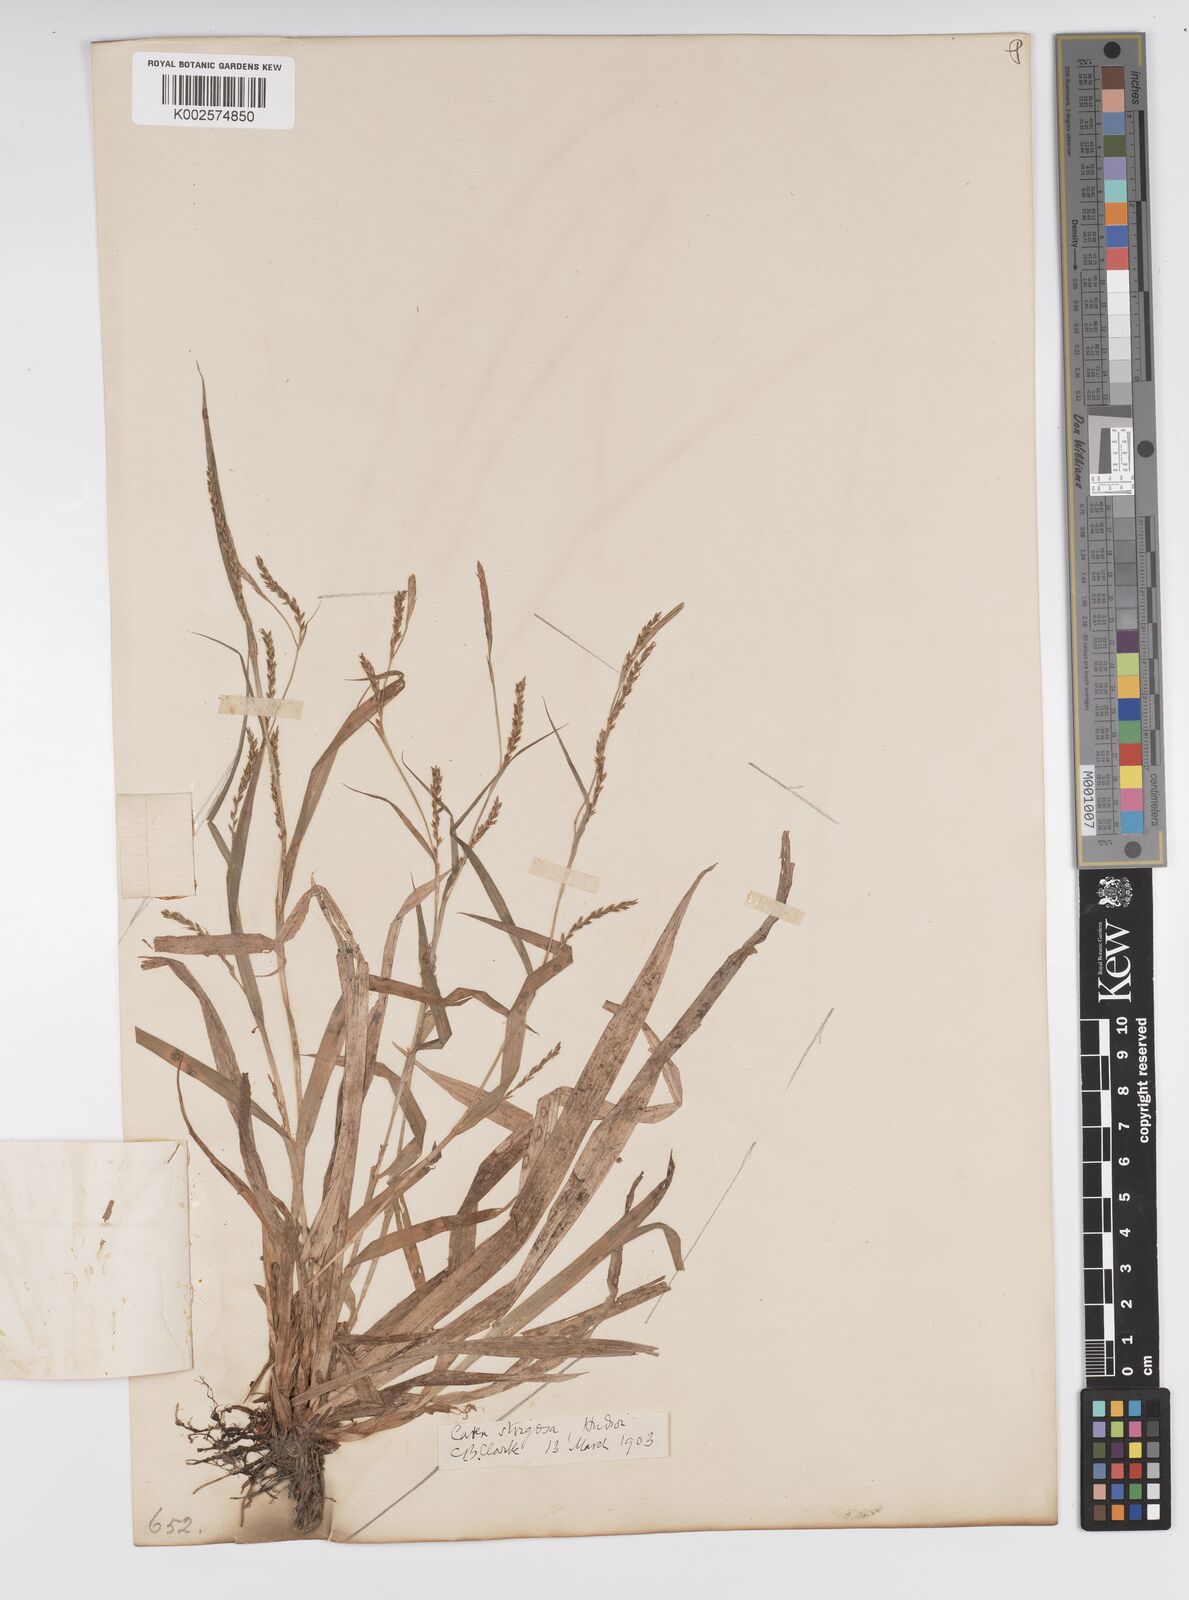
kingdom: Plantae
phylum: Tracheophyta
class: Liliopsida
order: Poales
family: Cyperaceae
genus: Carex
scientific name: Carex strigosa
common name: Thin-spiked wood-sedge
